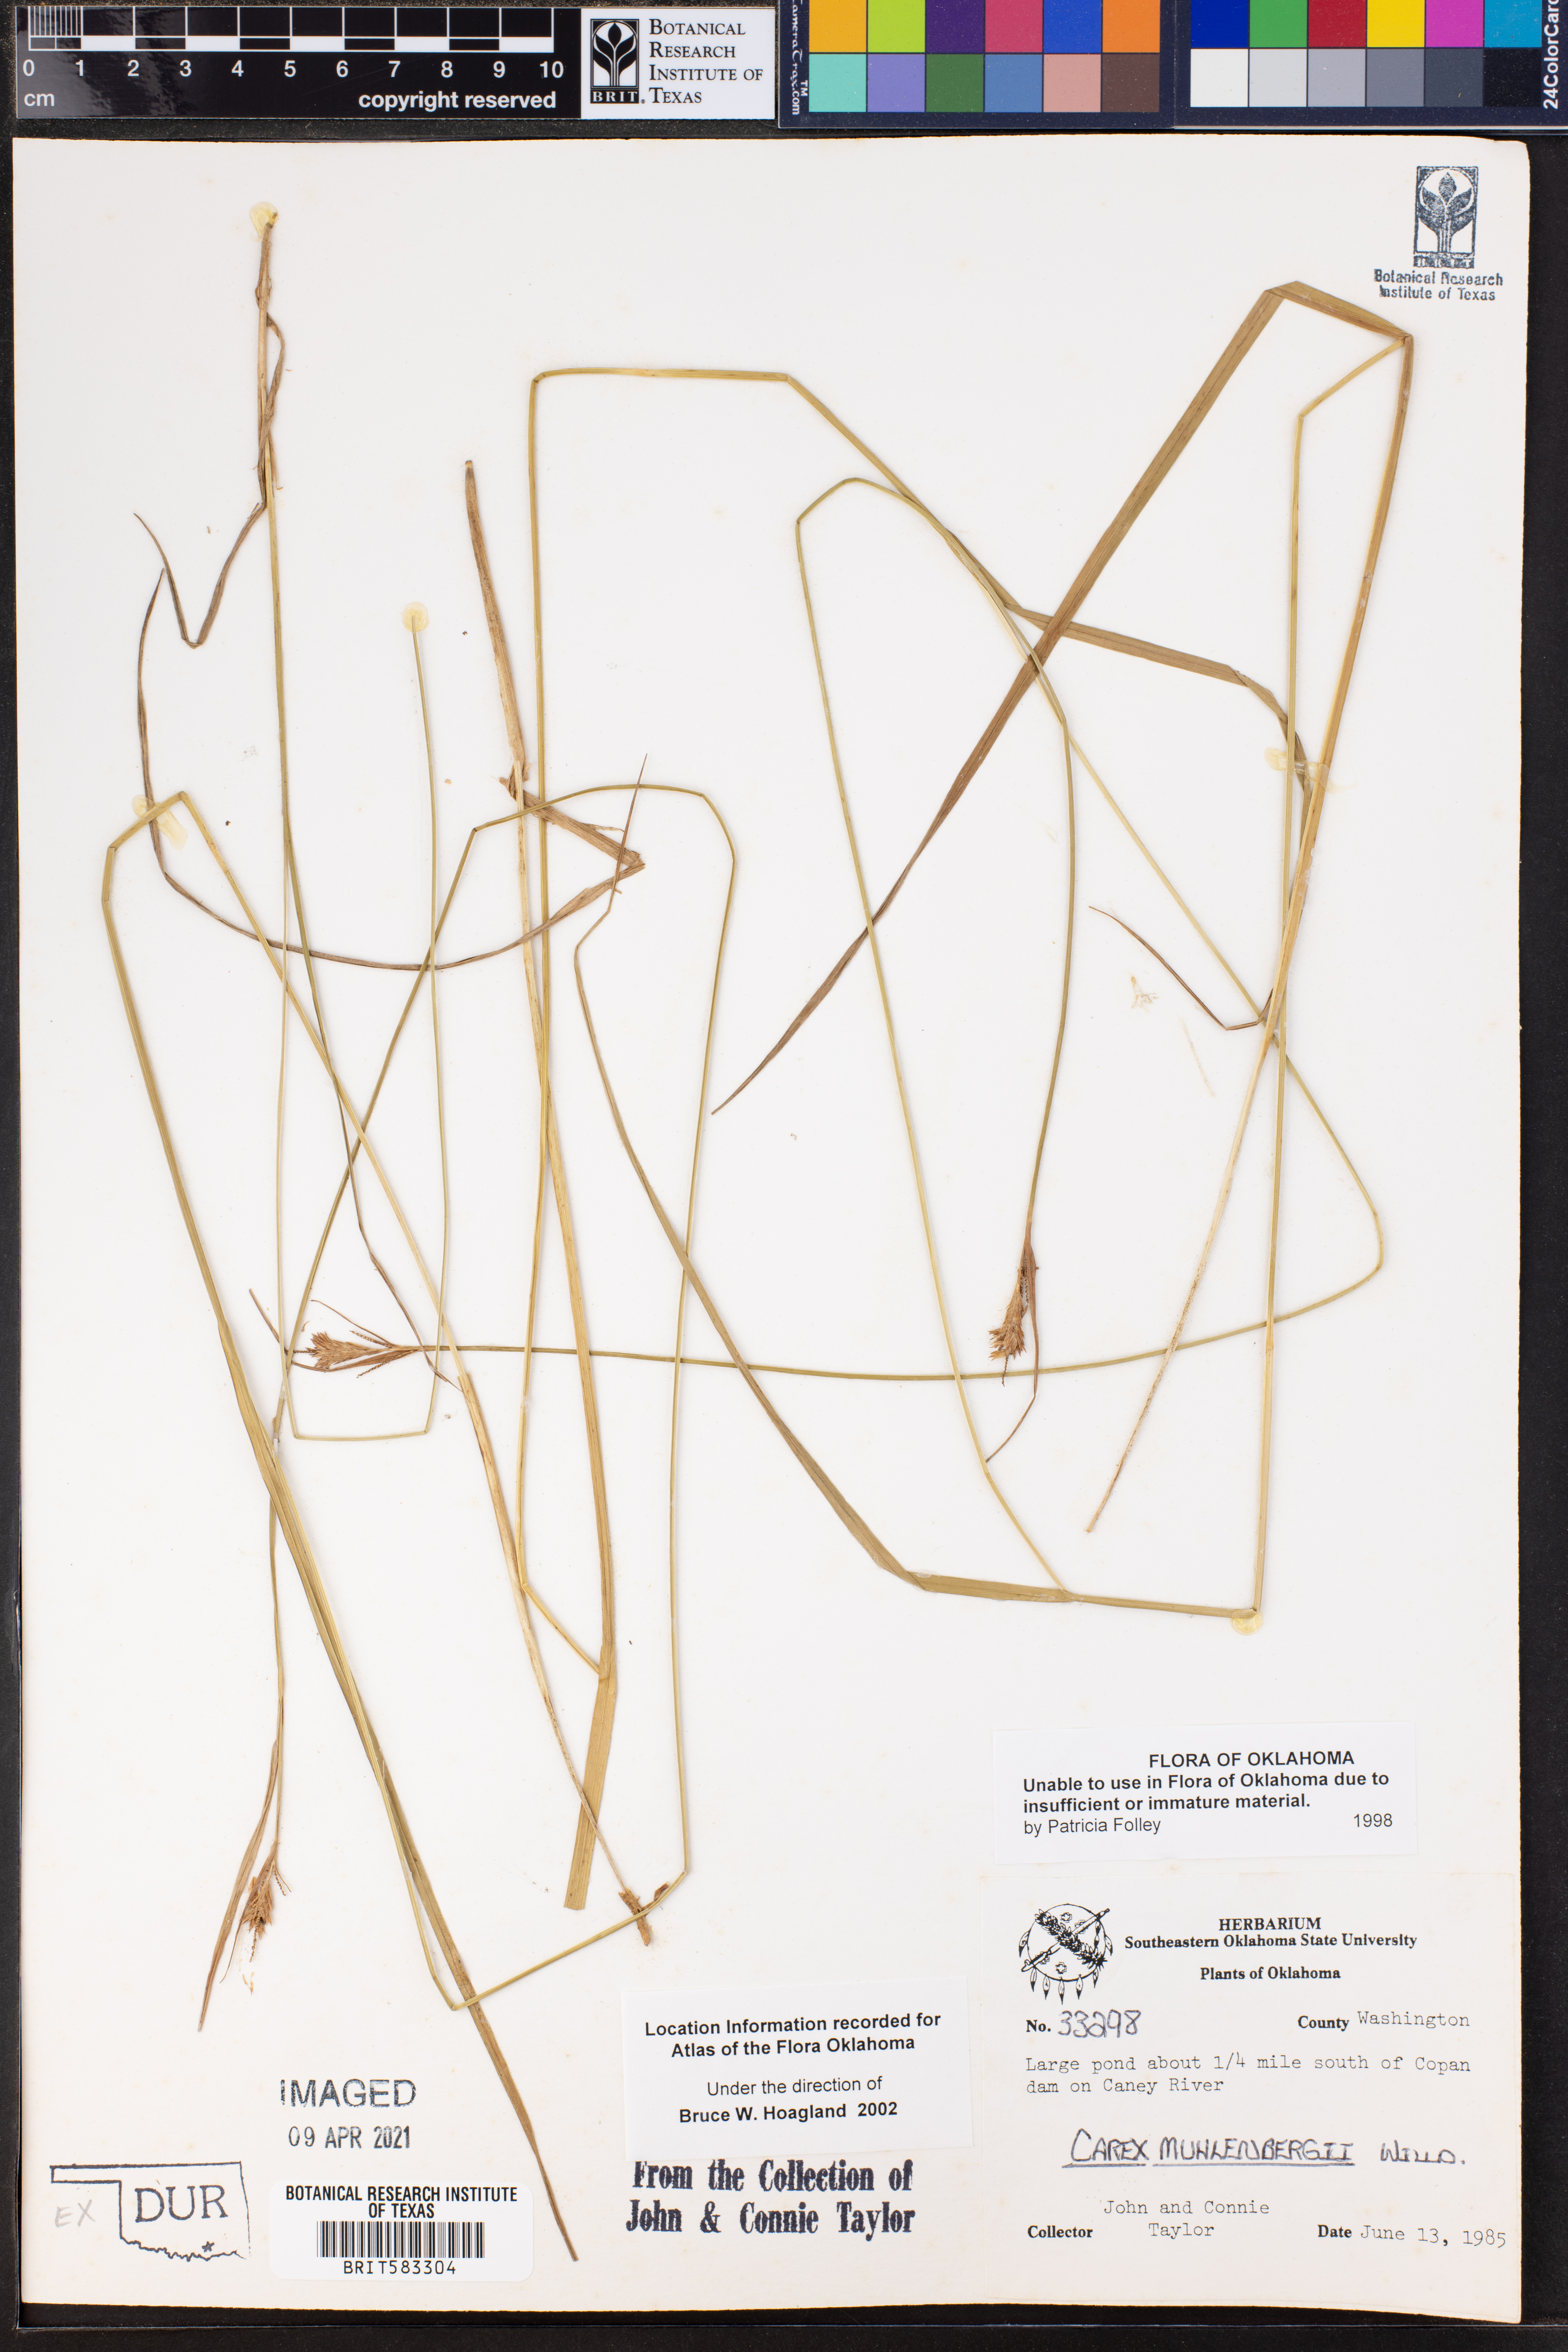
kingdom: Plantae
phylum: Tracheophyta
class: Liliopsida
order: Poales
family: Cyperaceae
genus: Carex
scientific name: Carex vulpinoidea
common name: American fox-sedge
